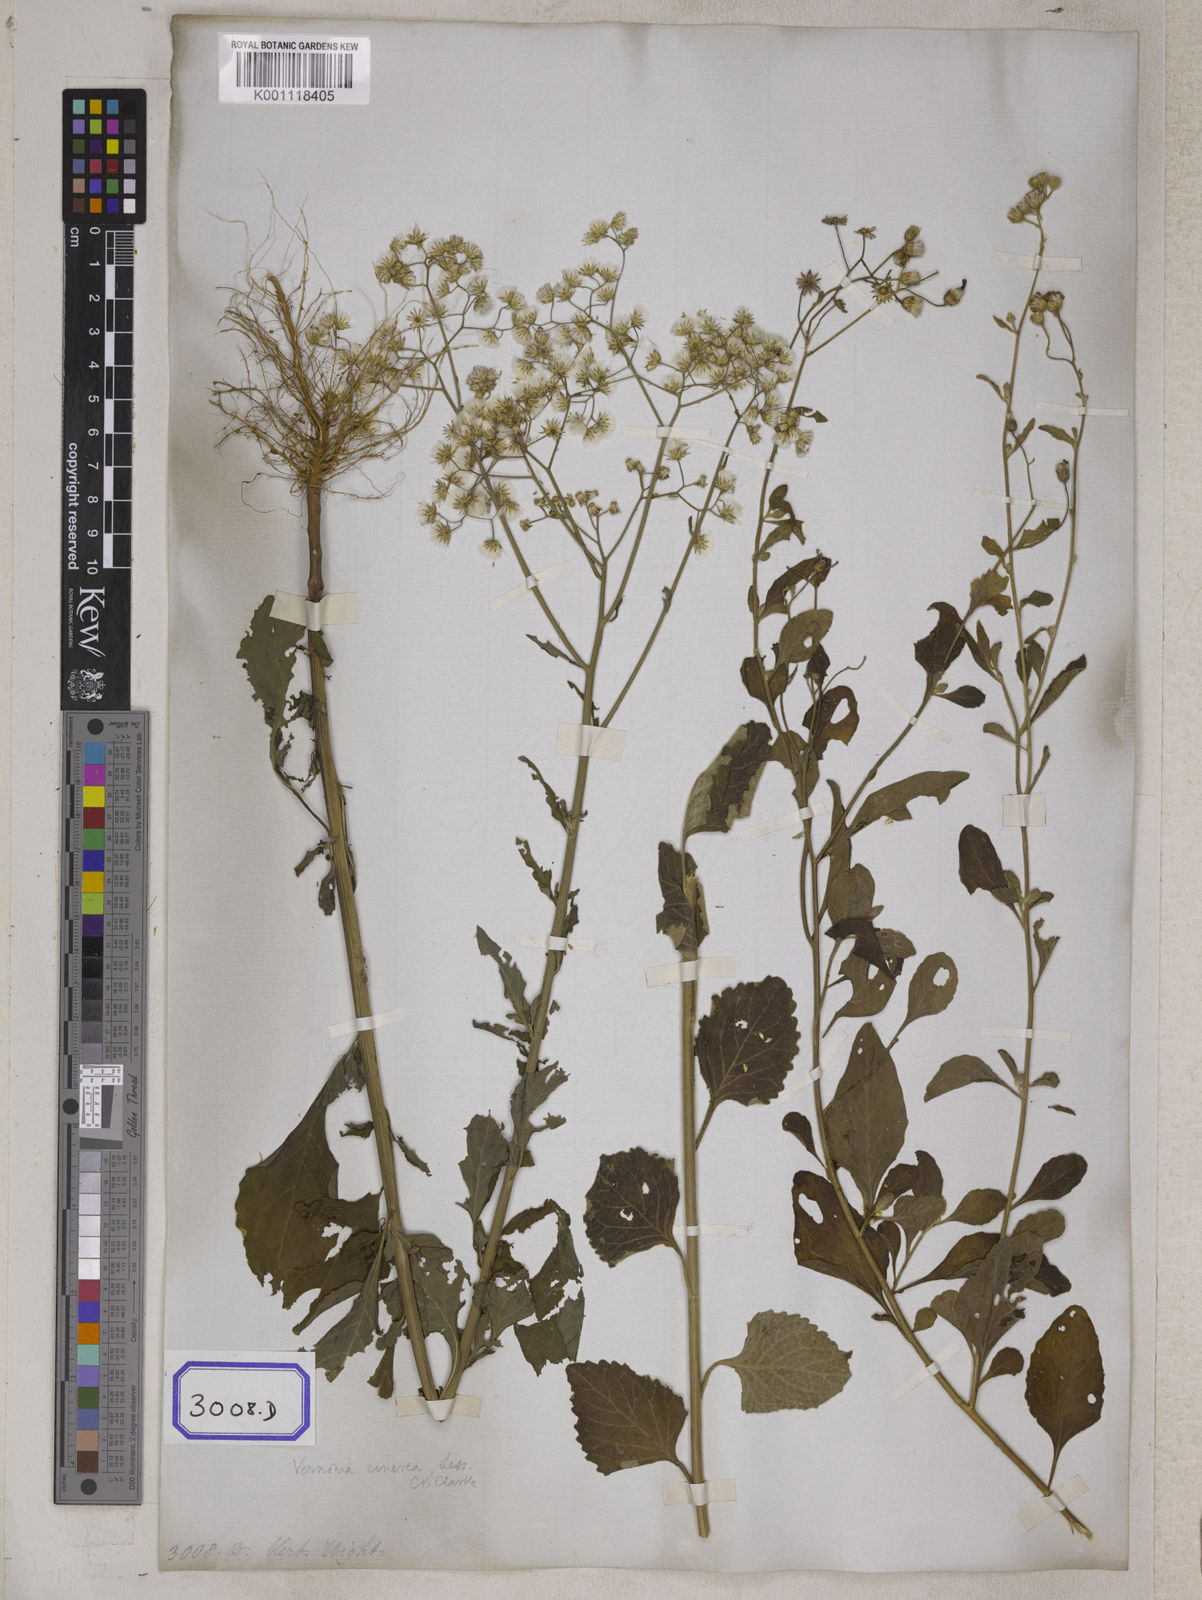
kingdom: Plantae
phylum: Tracheophyta
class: Magnoliopsida
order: Asterales
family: Asteraceae
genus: Cyanthillium
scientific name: Cyanthillium cinereum
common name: Little ironweed
